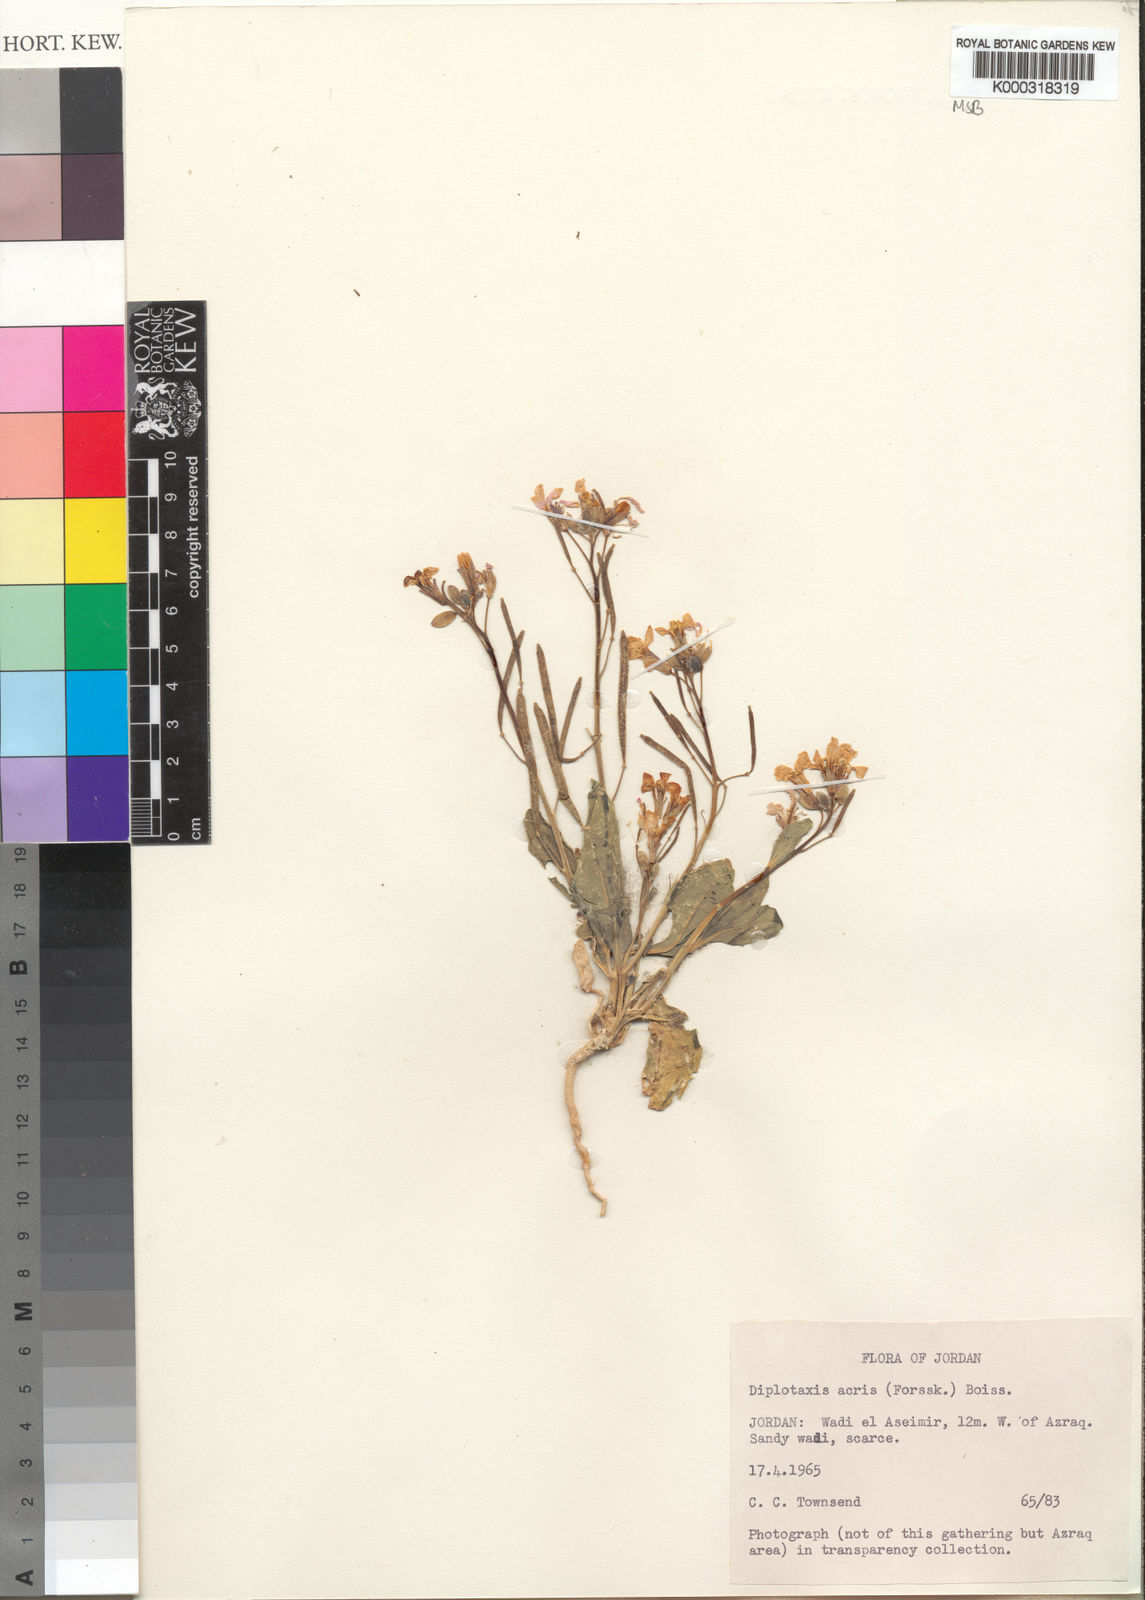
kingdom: Plantae
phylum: Tracheophyta
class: Magnoliopsida
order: Brassicales
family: Brassicaceae
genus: Diplotaxis
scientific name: Diplotaxis acris
